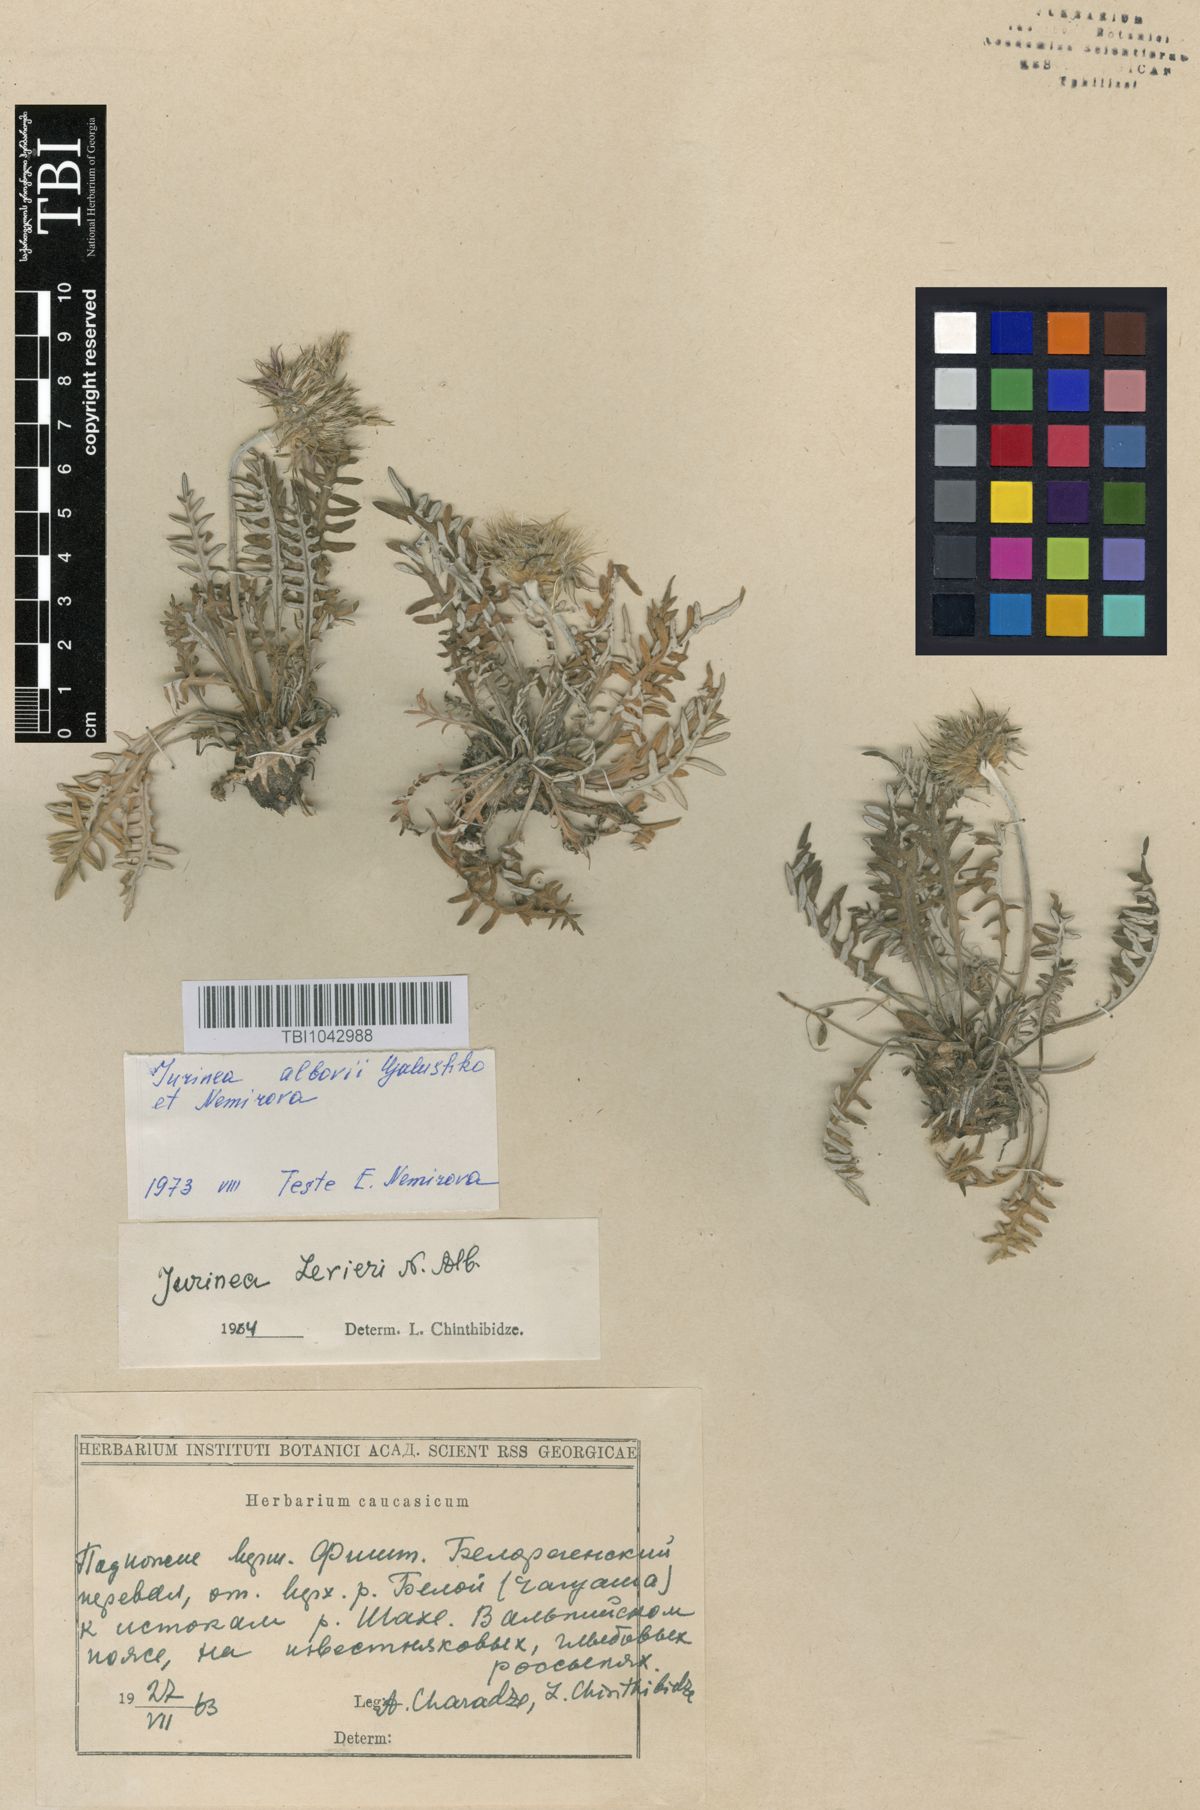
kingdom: Plantae
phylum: Tracheophyta
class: Magnoliopsida
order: Asterales
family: Asteraceae
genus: Jurinea
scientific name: Jurinea
